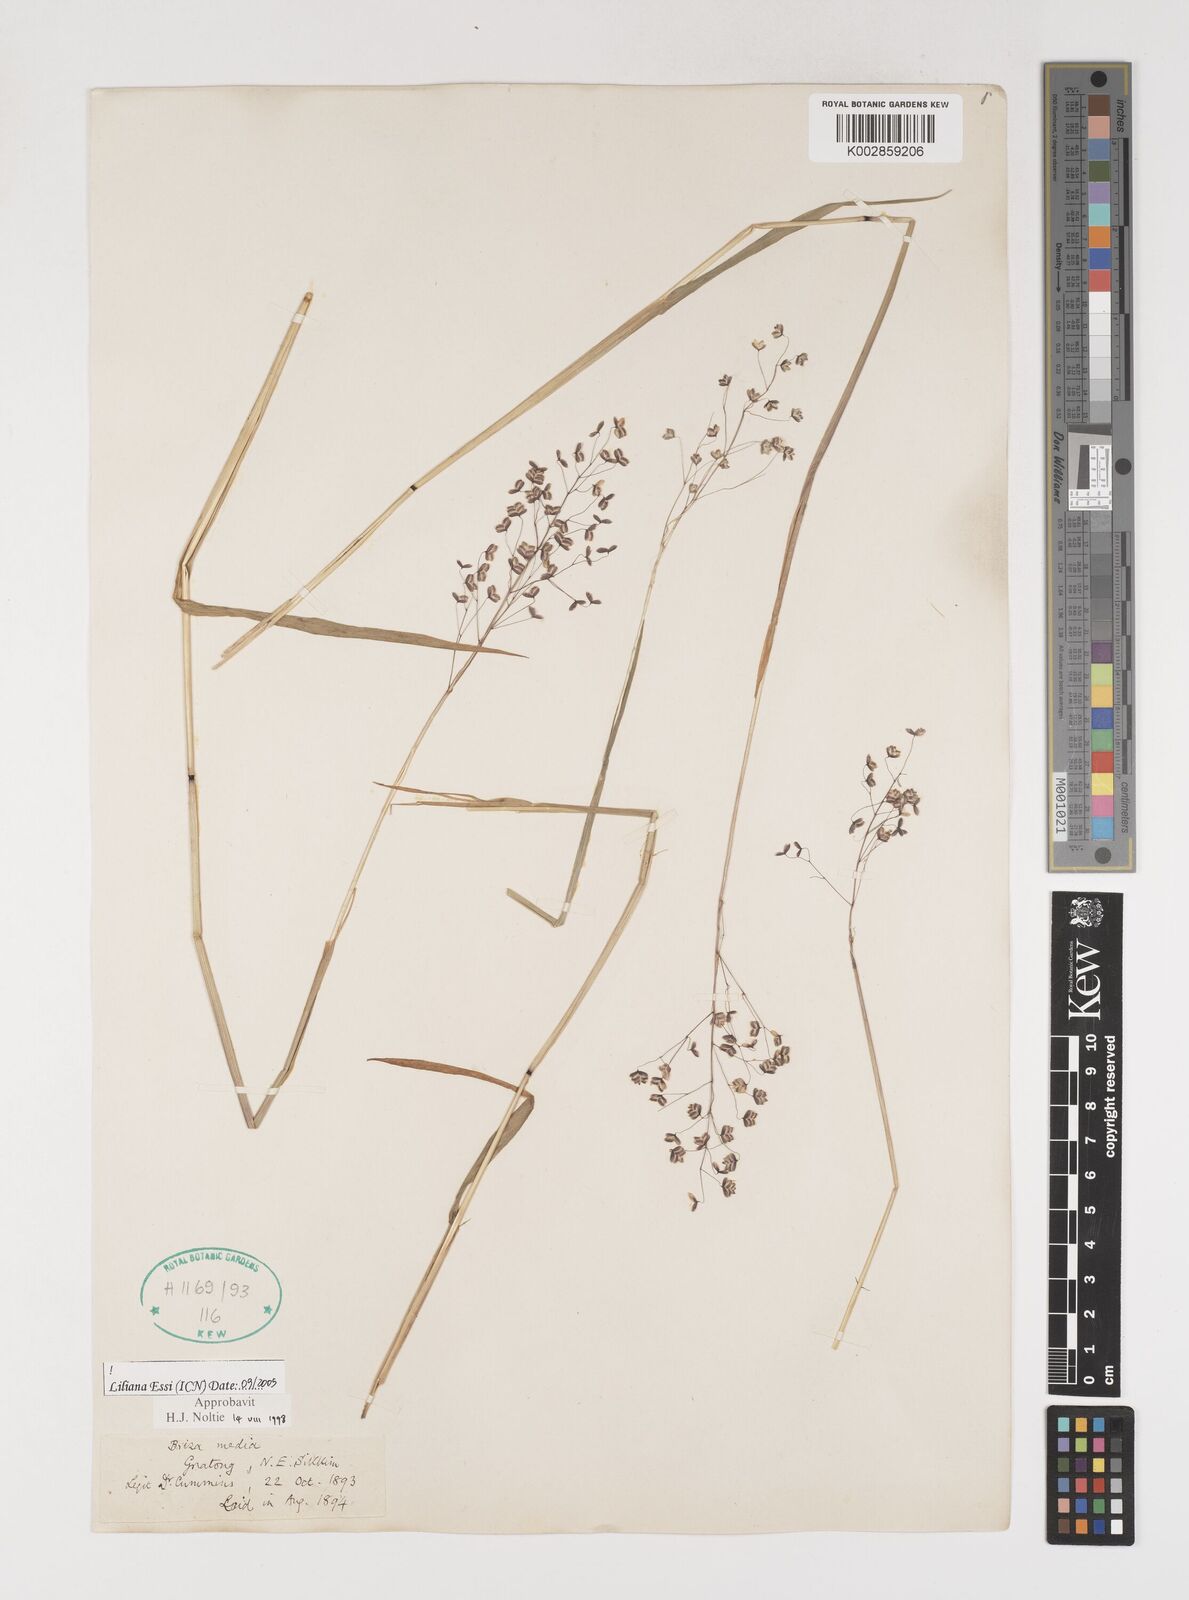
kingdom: Plantae
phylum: Tracheophyta
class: Liliopsida
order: Poales
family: Poaceae
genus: Briza
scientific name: Briza media
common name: Quaking grass
